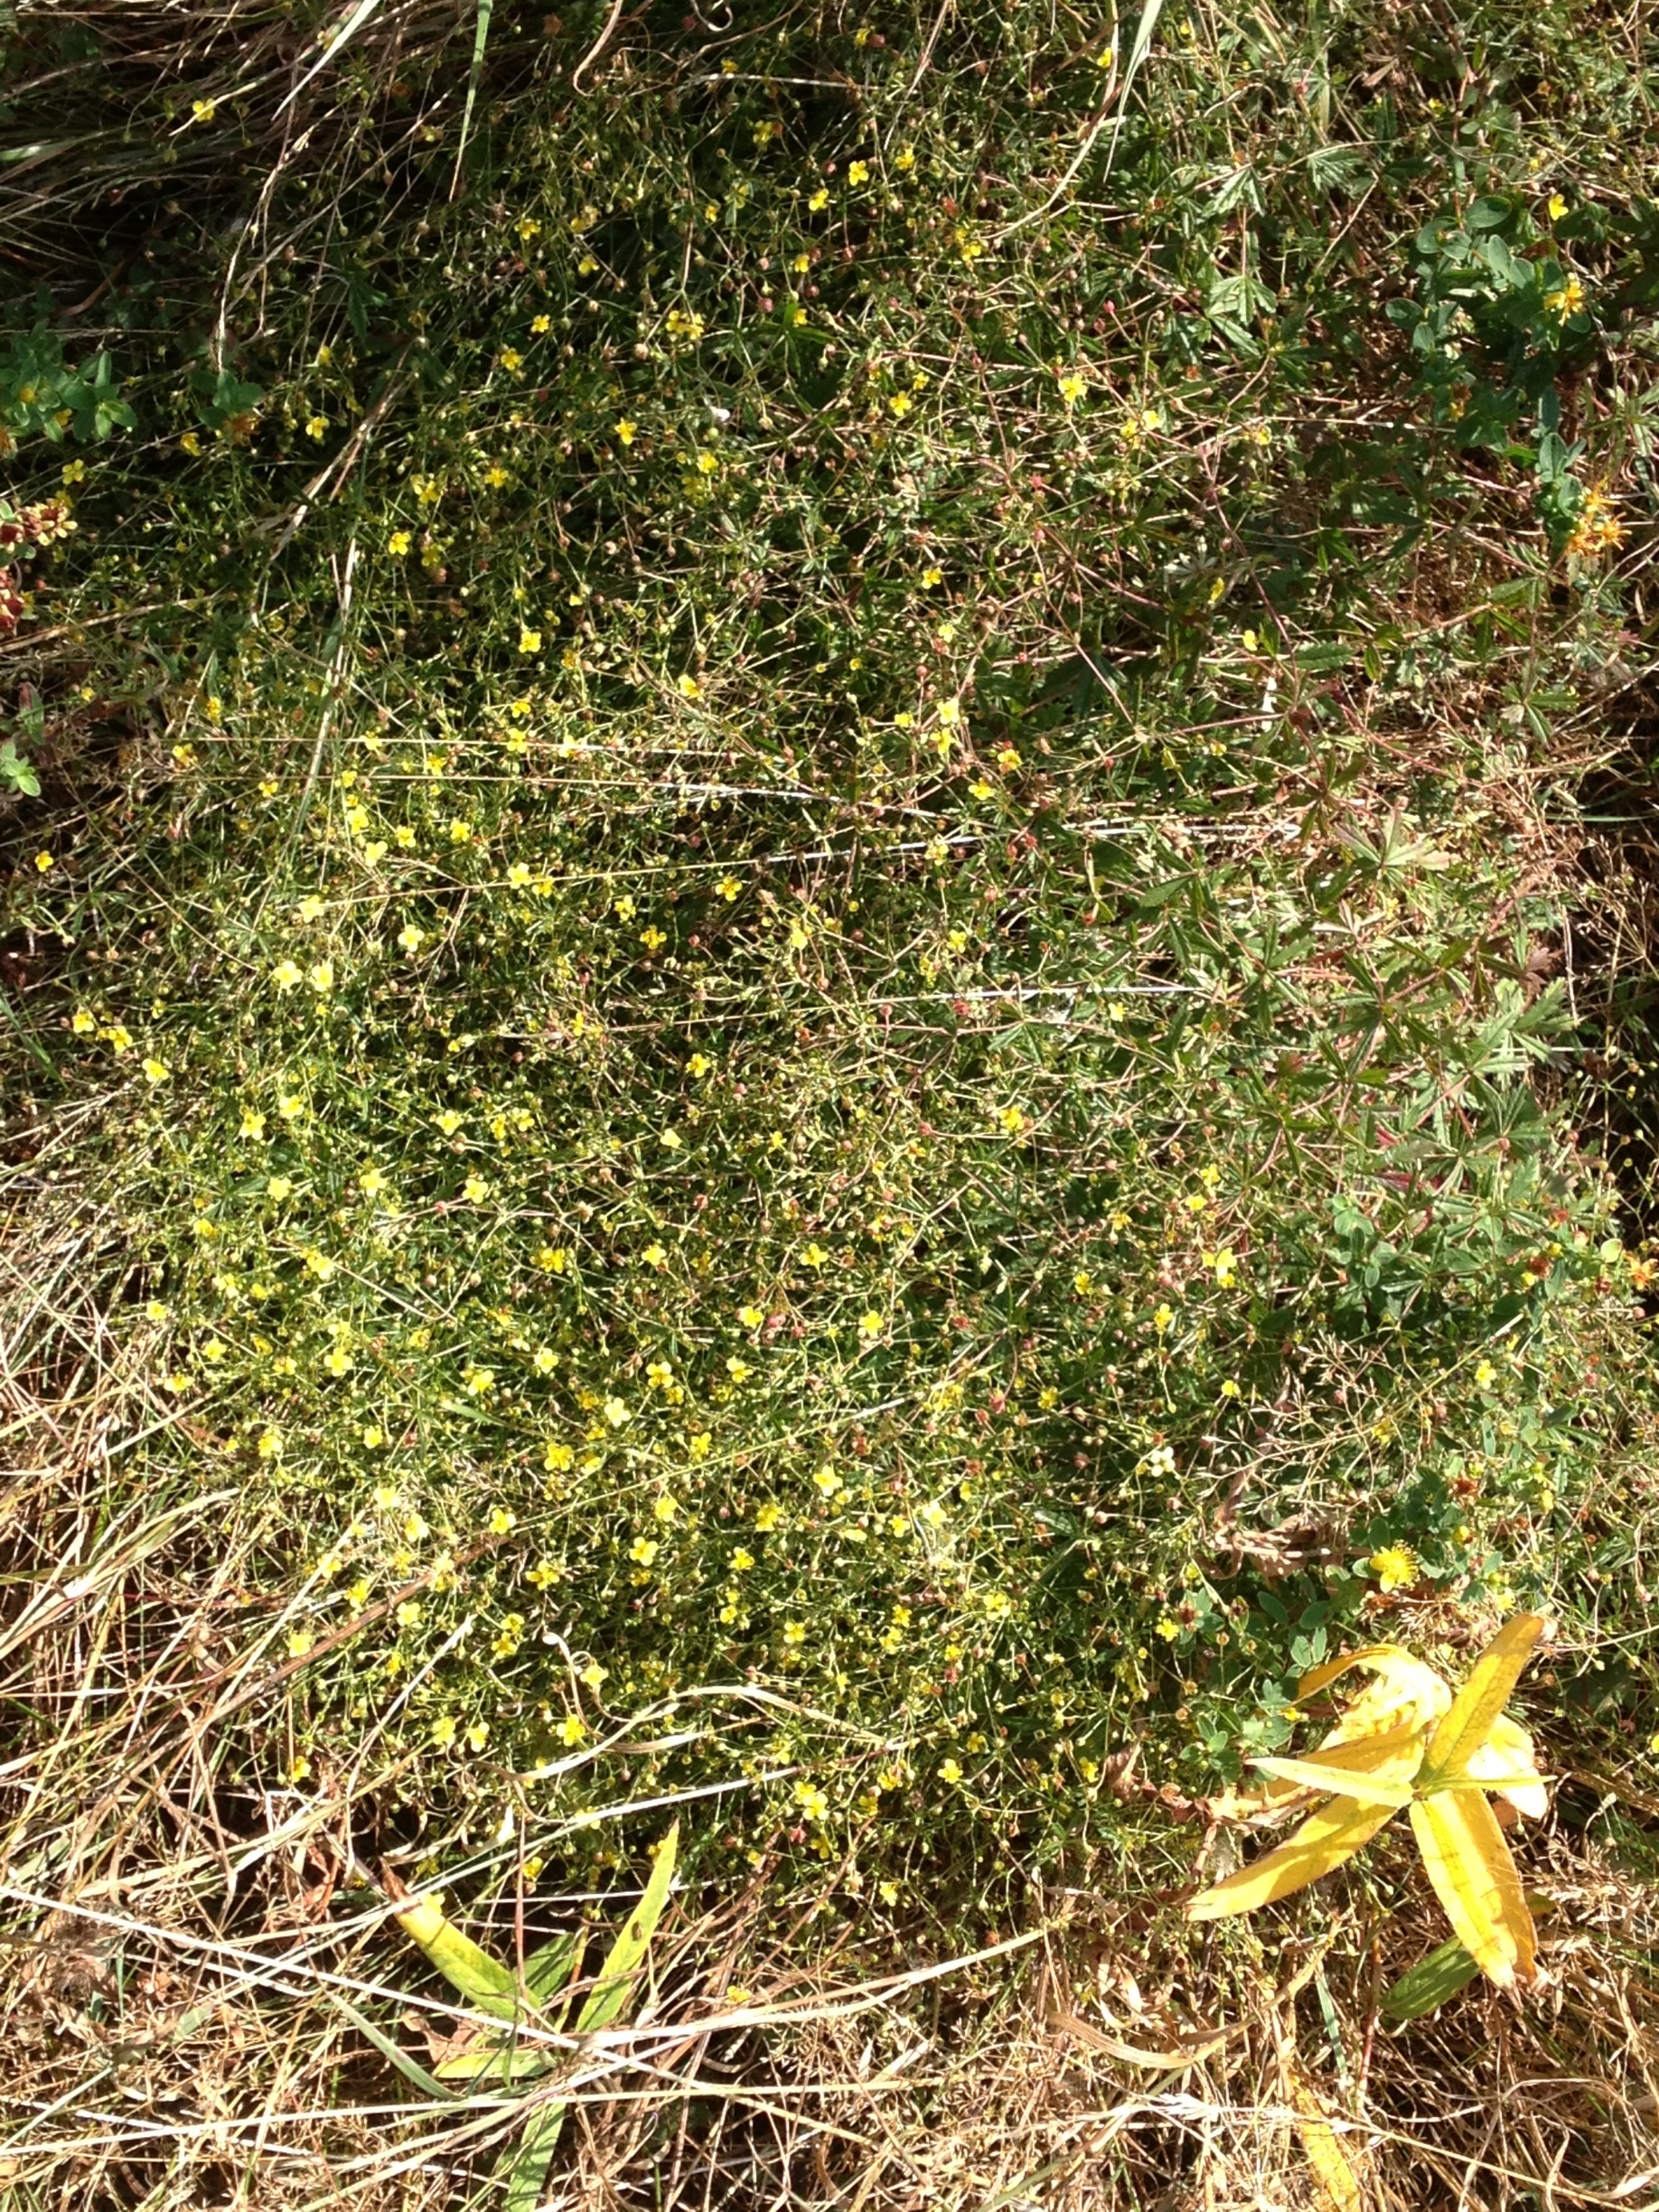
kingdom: Plantae
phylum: Tracheophyta
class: Magnoliopsida
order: Rosales
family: Rosaceae
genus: Potentilla
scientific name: Potentilla erecta
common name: Tormentil
